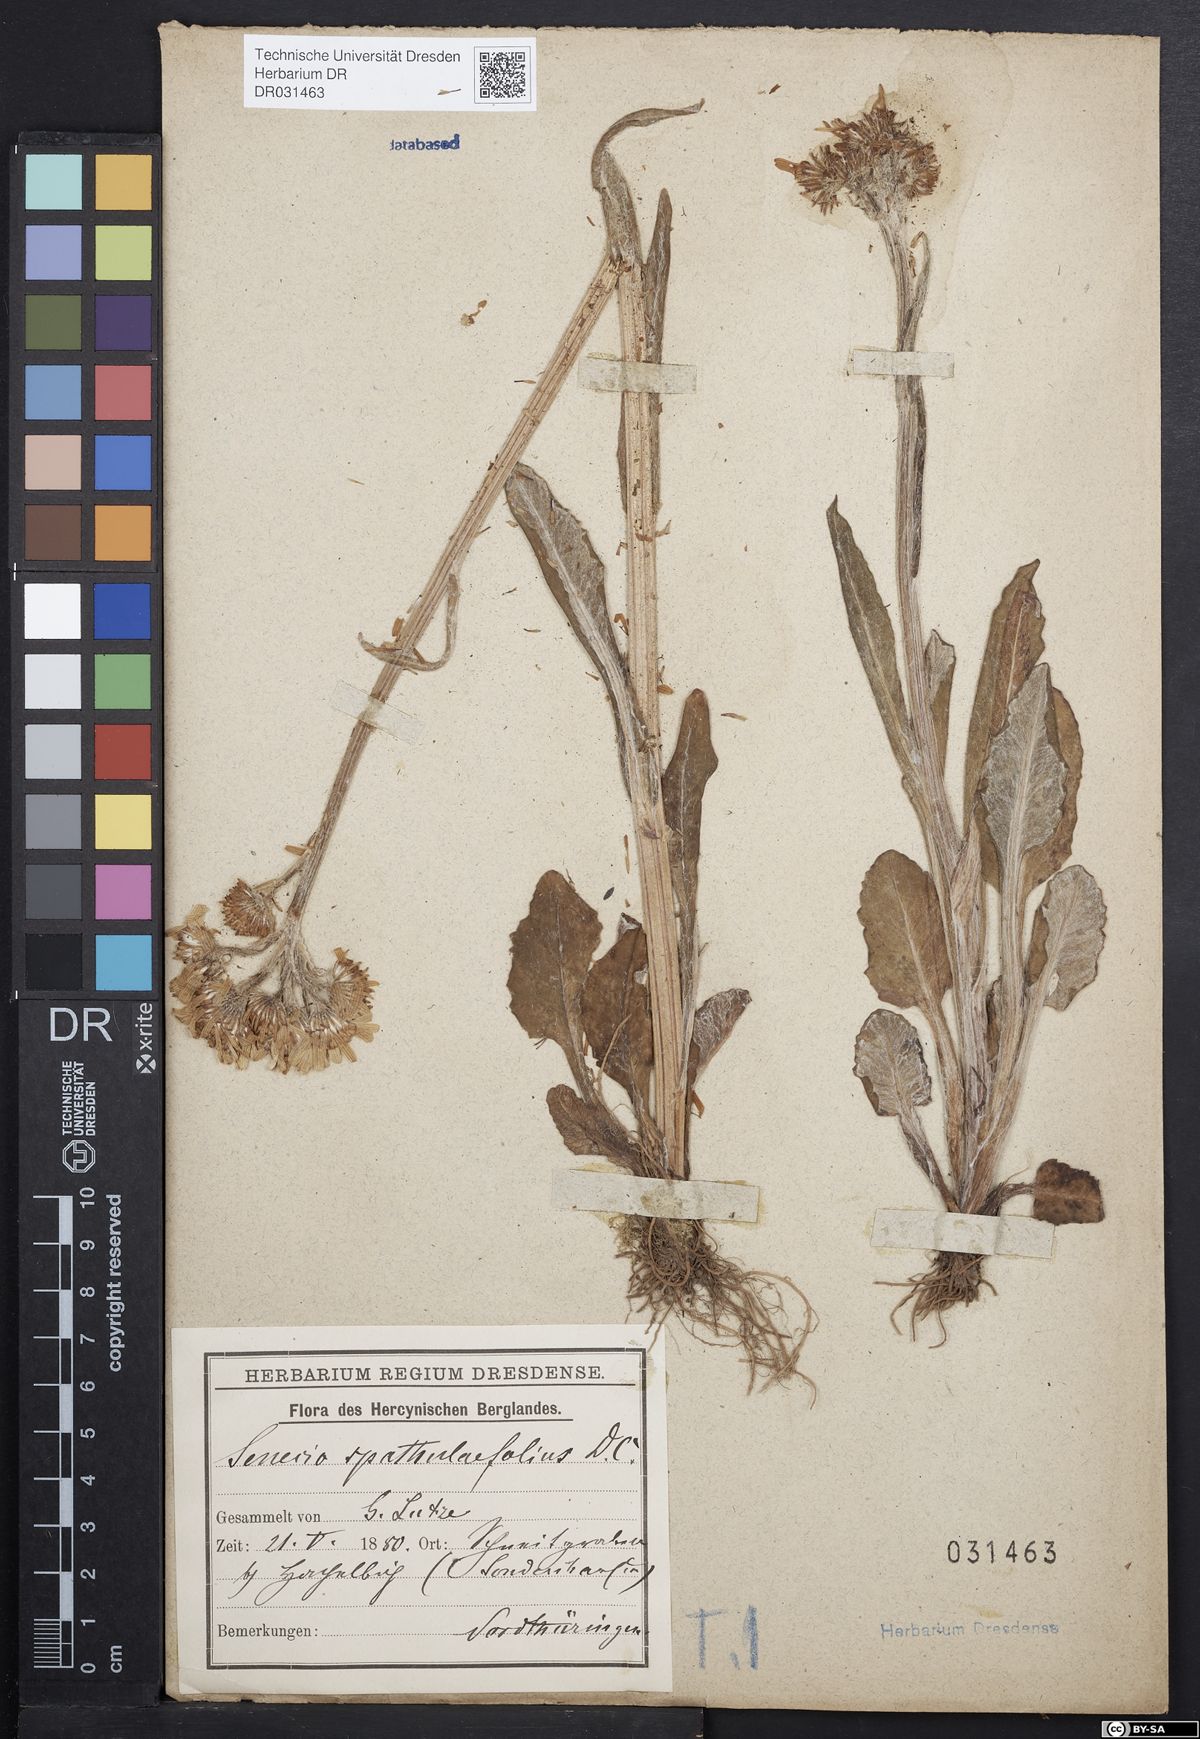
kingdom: Plantae
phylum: Tracheophyta
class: Magnoliopsida
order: Asterales
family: Asteraceae
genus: Tephroseris
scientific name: Tephroseris helenitis
